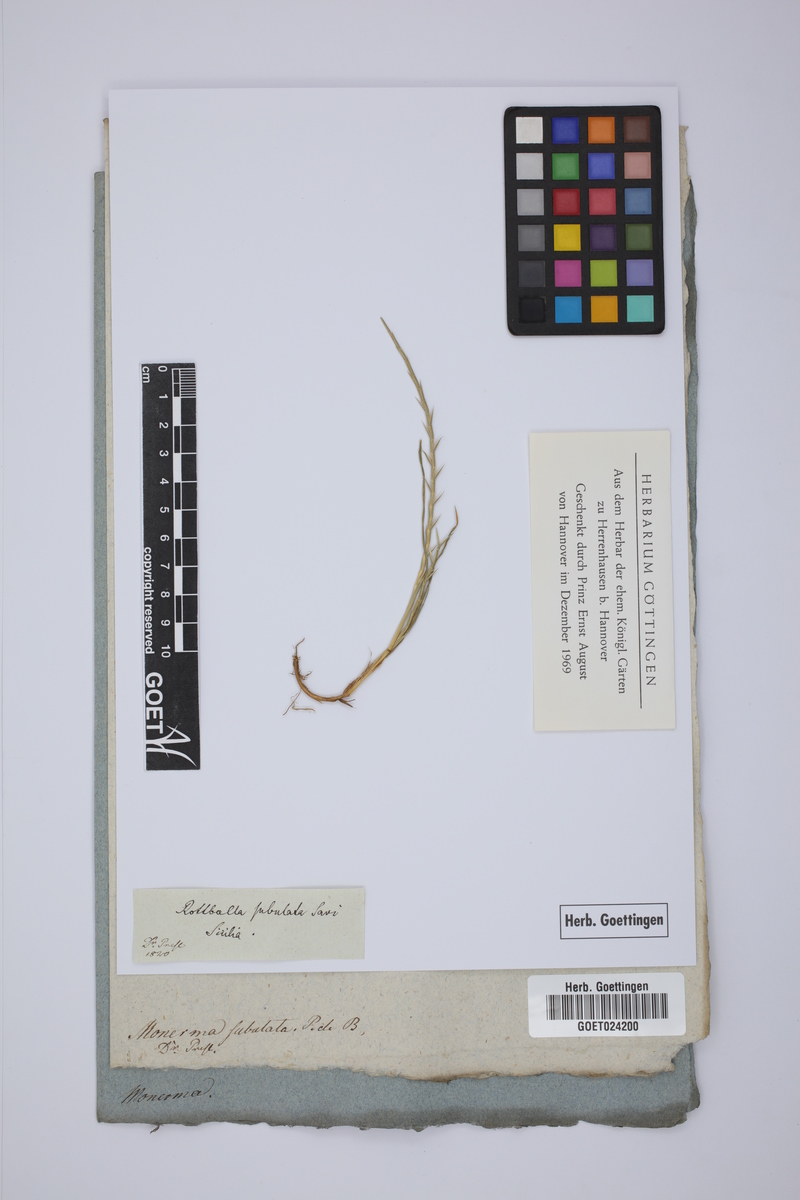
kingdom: Plantae
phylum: Tracheophyta
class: Liliopsida
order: Poales
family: Poaceae
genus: Parapholis
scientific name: Parapholis cylindrica
